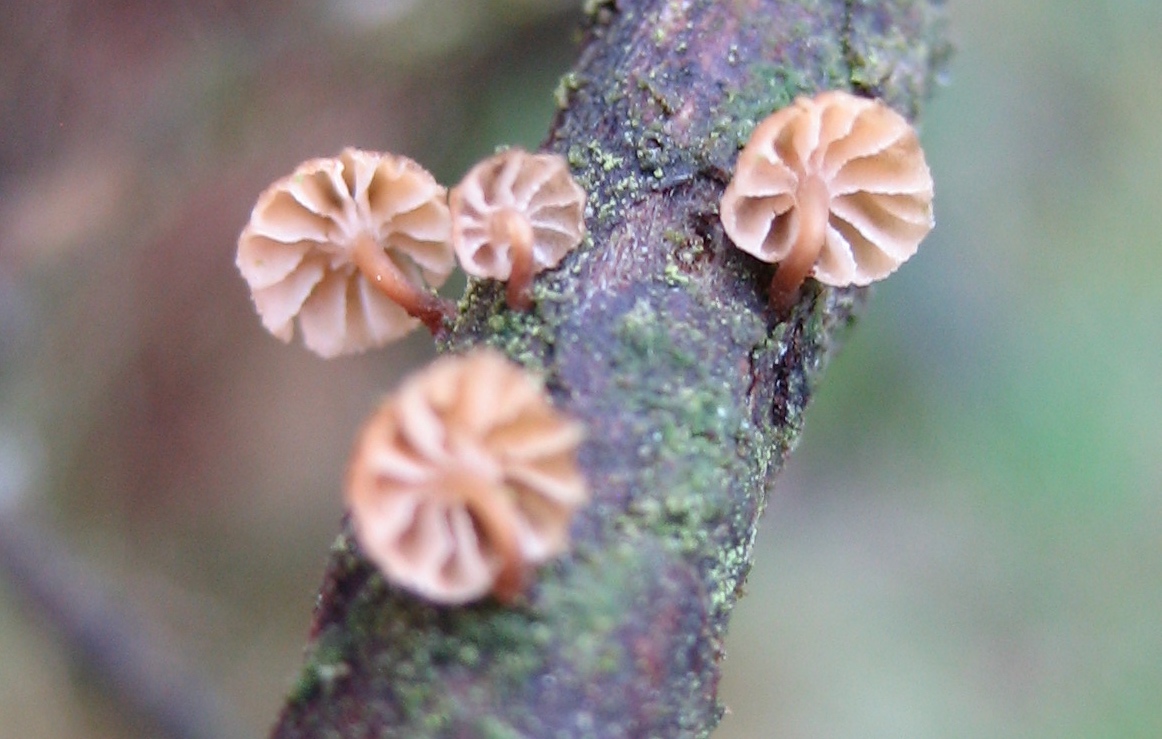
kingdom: Fungi
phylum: Basidiomycota
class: Agaricomycetes
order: Agaricales
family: Mycenaceae
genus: Mycena
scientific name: Mycena juniperina
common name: ene-Huesvamp
